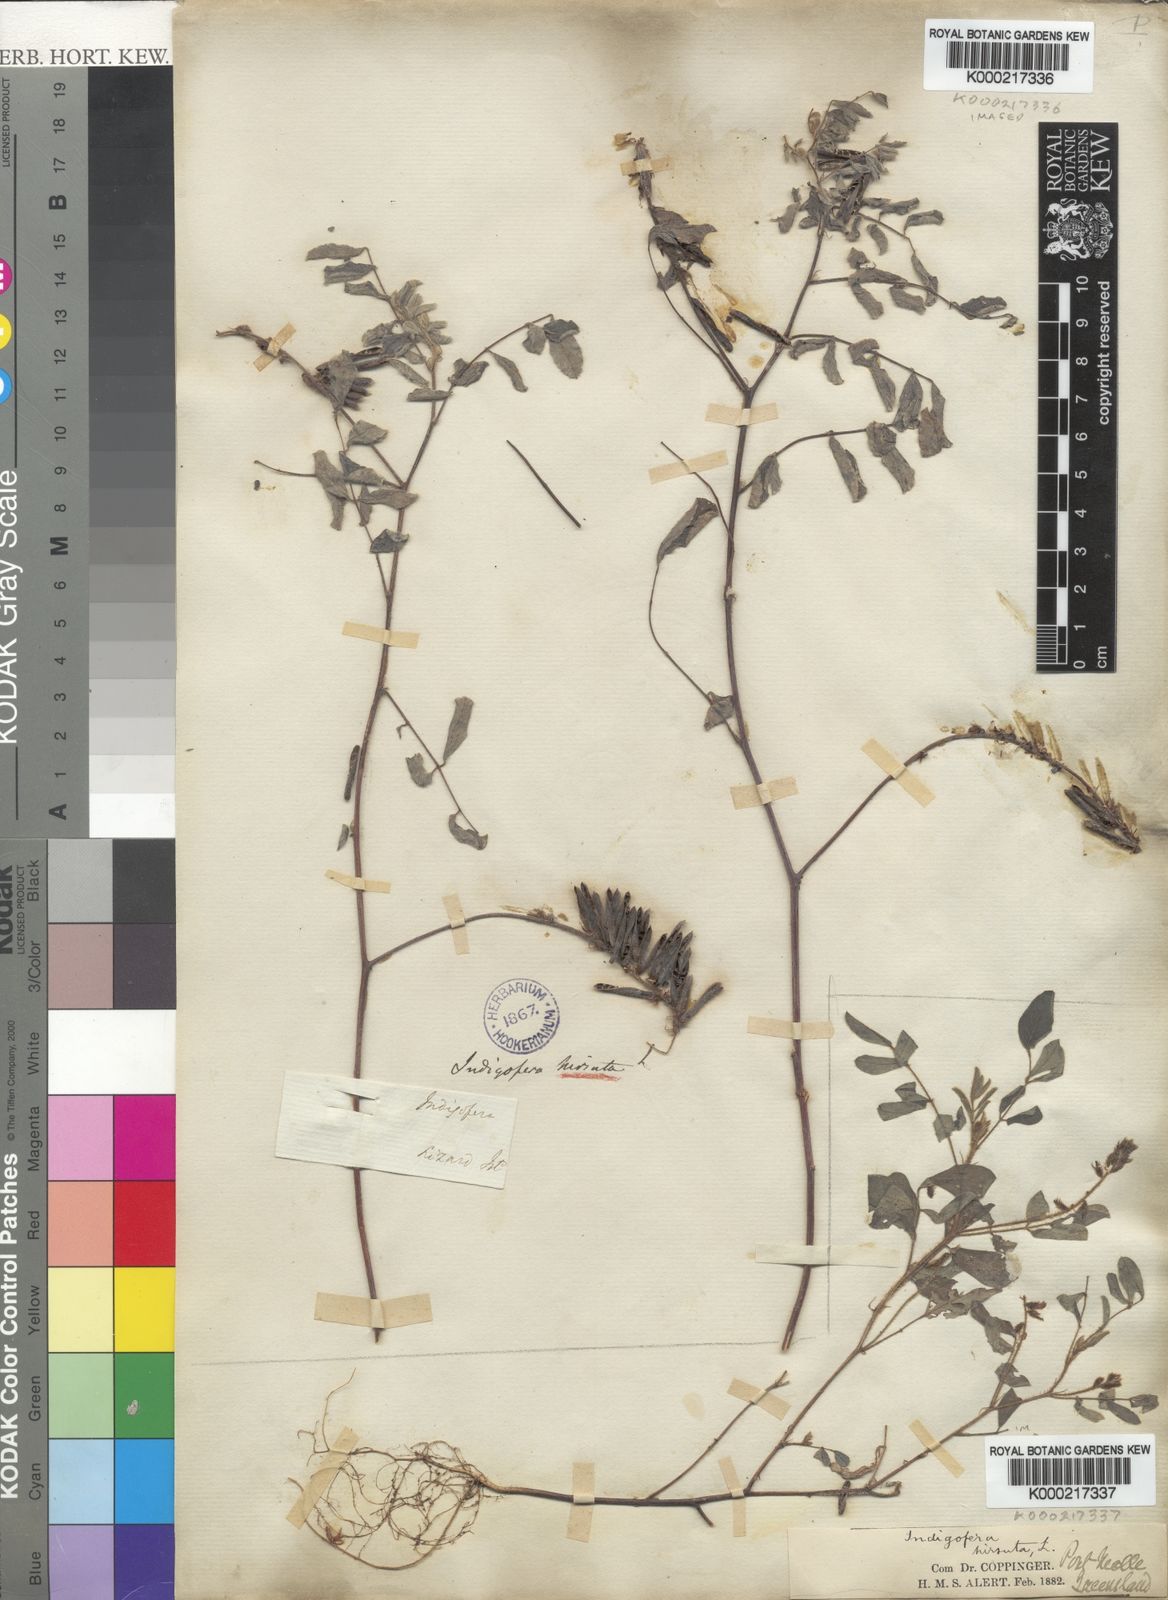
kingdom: Plantae
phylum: Tracheophyta
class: Magnoliopsida
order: Fabales
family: Fabaceae
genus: Indigofera
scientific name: Indigofera hirsuta
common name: Hairy indigo
